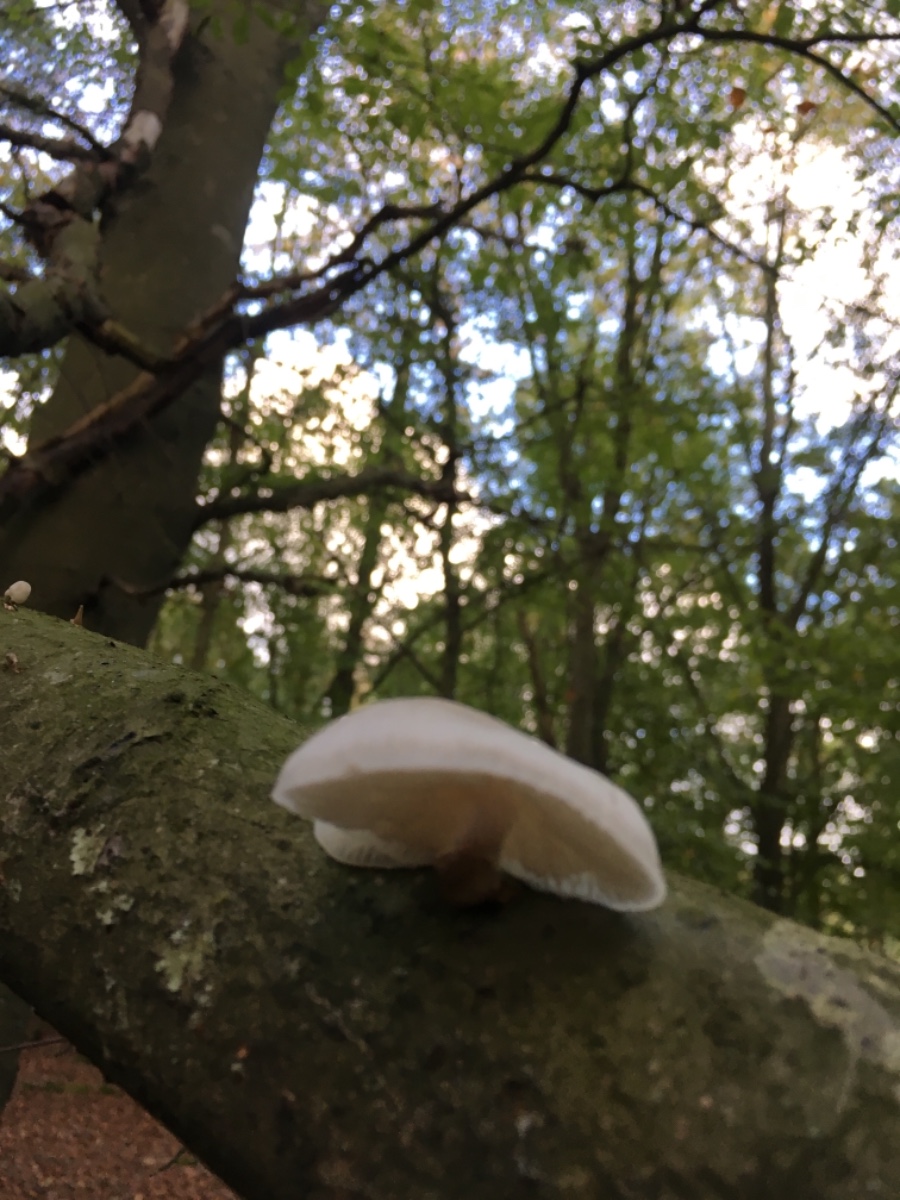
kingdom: Fungi
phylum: Basidiomycota
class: Agaricomycetes
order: Agaricales
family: Physalacriaceae
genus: Mucidula
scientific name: Mucidula mucida
